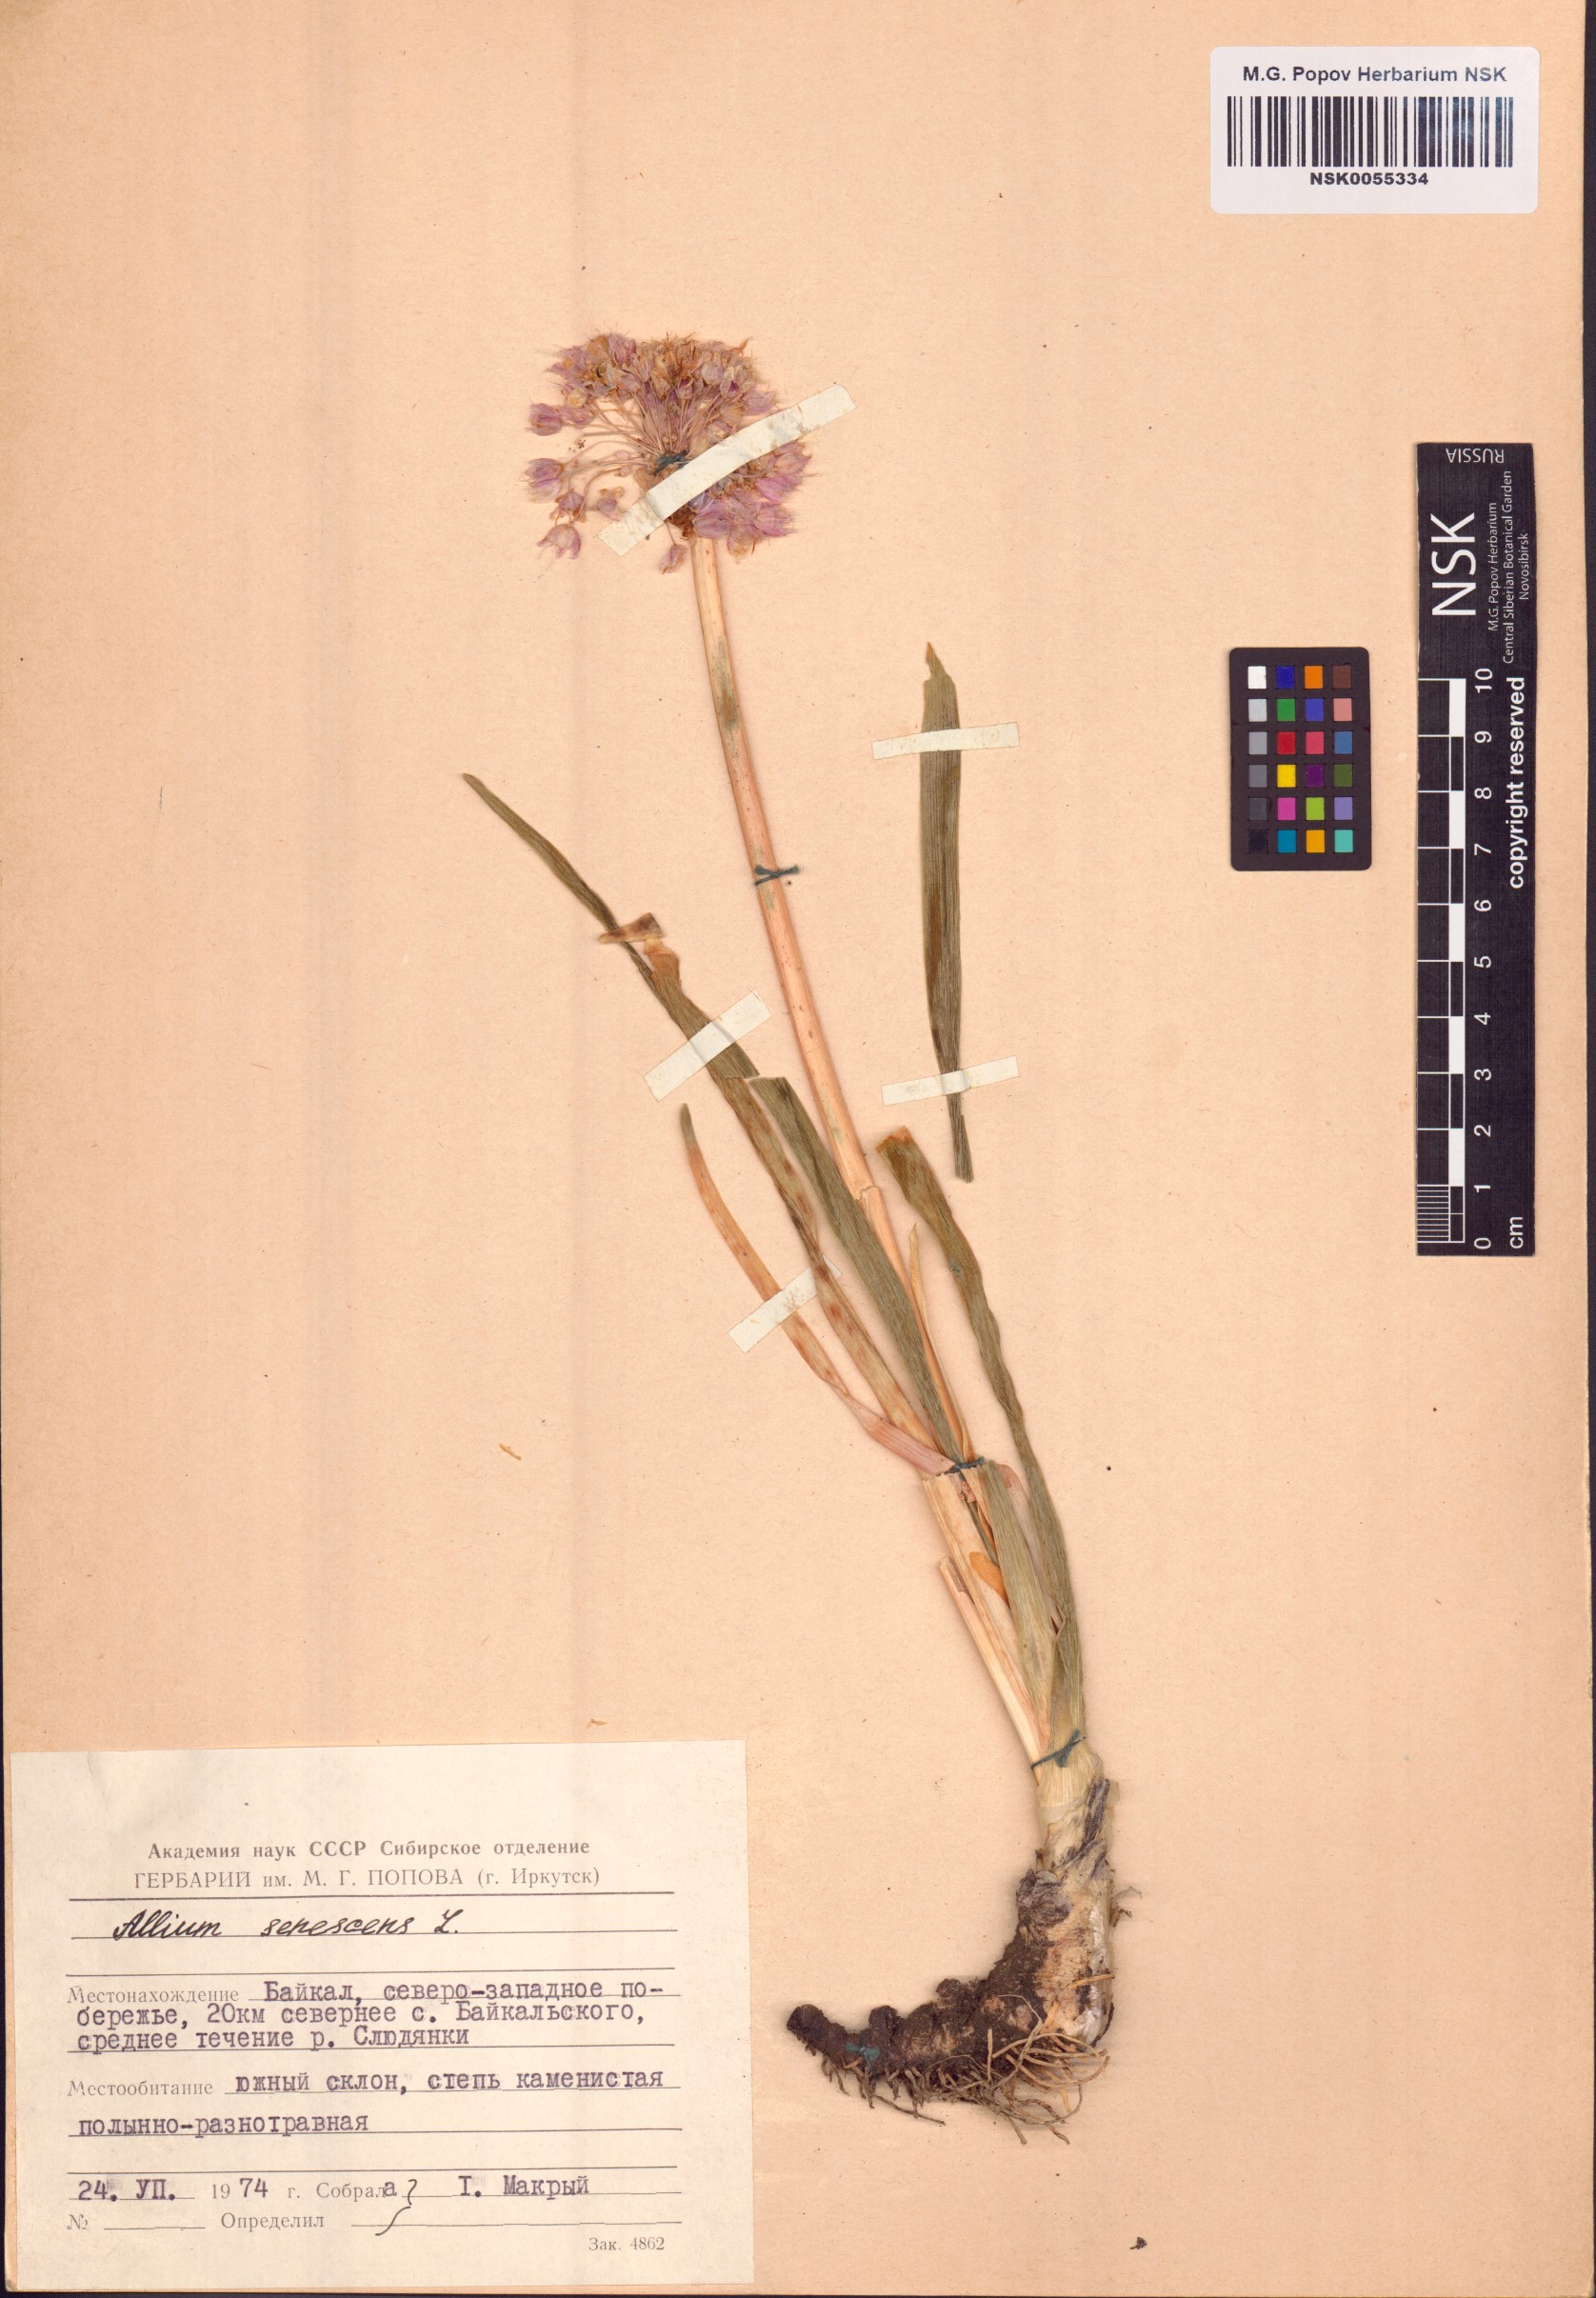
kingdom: Plantae
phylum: Tracheophyta
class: Liliopsida
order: Asparagales
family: Amaryllidaceae
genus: Allium
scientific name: Allium senescens
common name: German garlic
